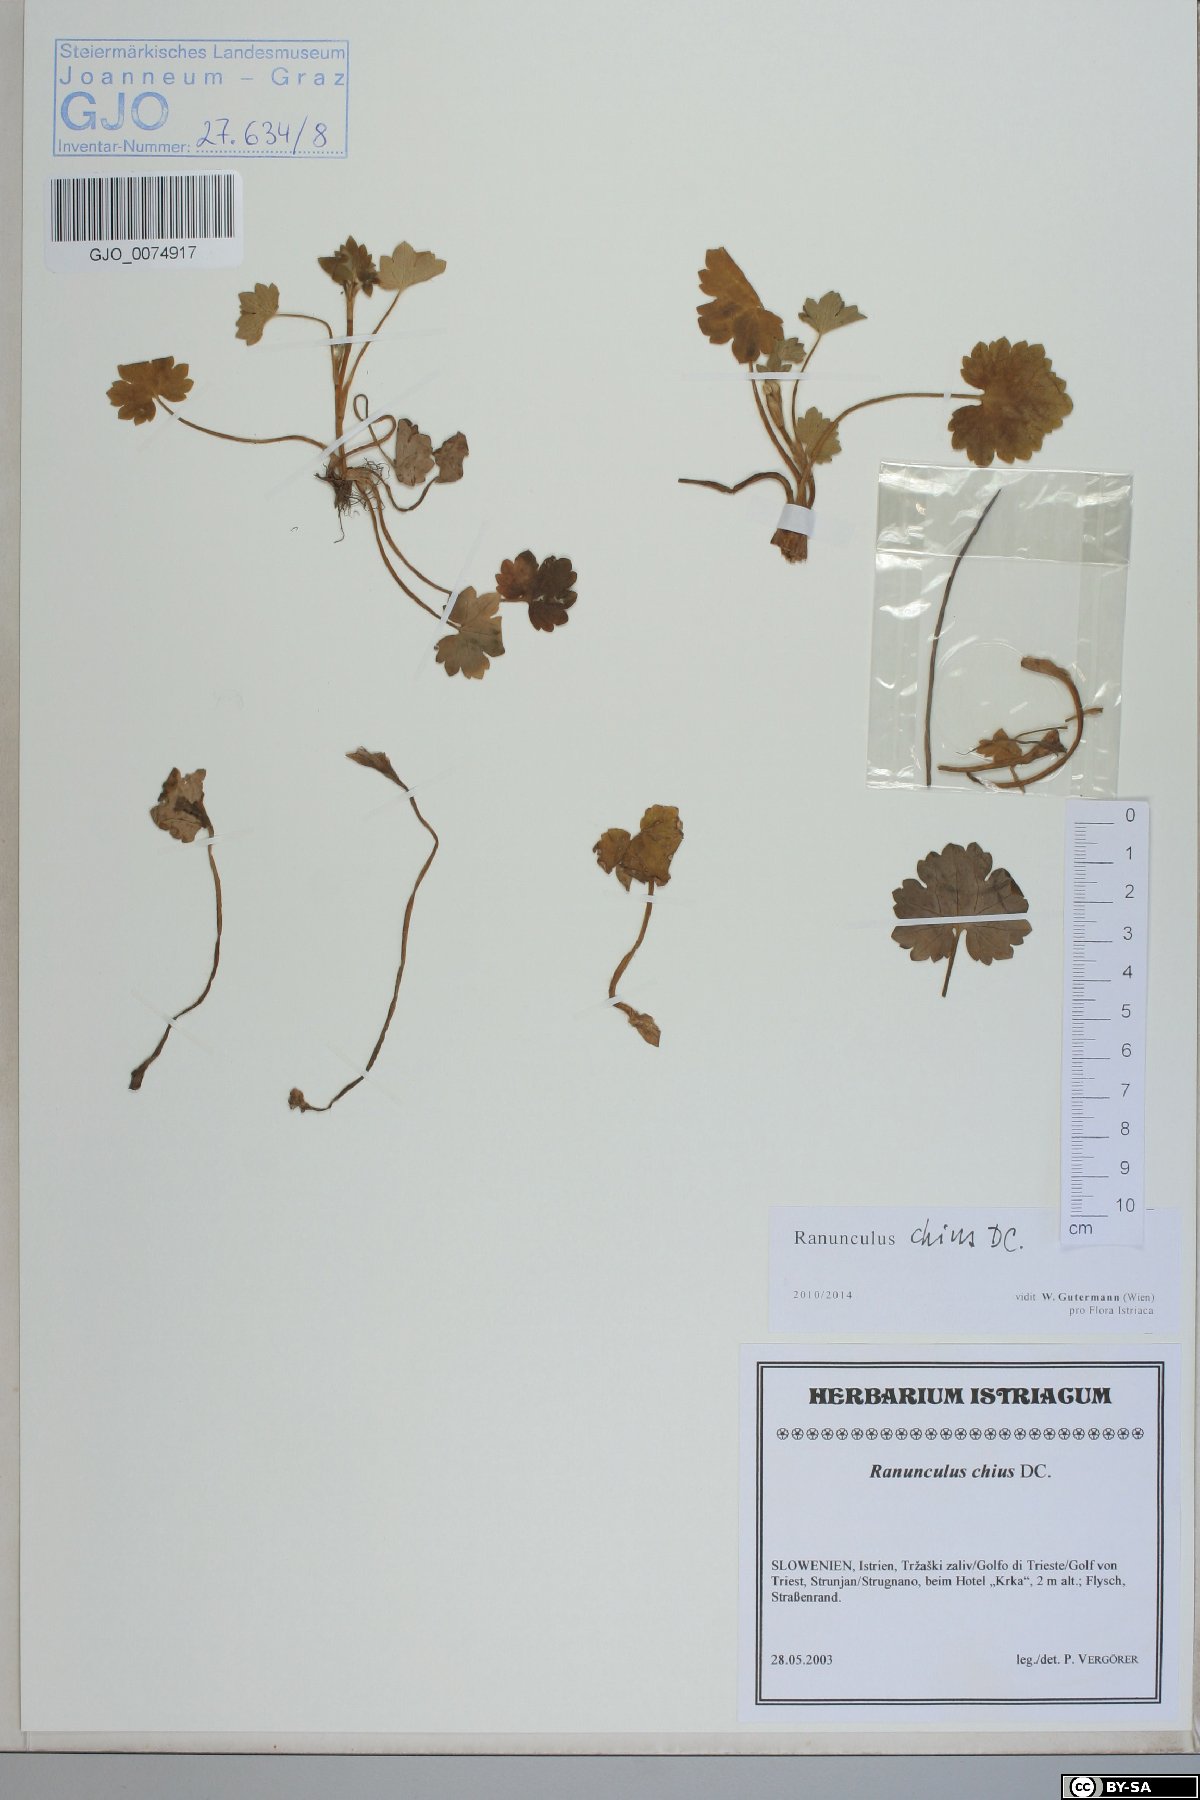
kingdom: Plantae
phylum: Tracheophyta
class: Magnoliopsida
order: Ranunculales
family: Ranunculaceae
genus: Ranunculus
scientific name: Ranunculus chius
